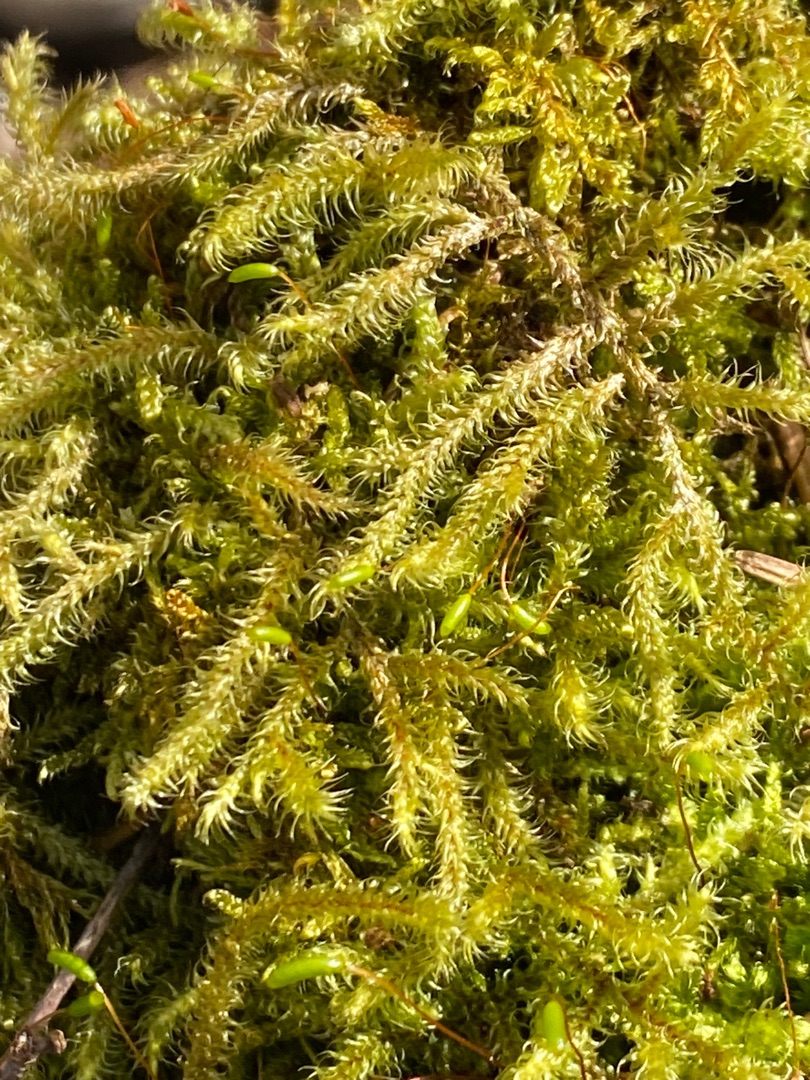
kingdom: Plantae
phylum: Bryophyta
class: Bryopsida
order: Hypnales
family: Hylocomiaceae
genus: Rhytidiadelphus
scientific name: Rhytidiadelphus loreus
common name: Ulvefod-kransemos
